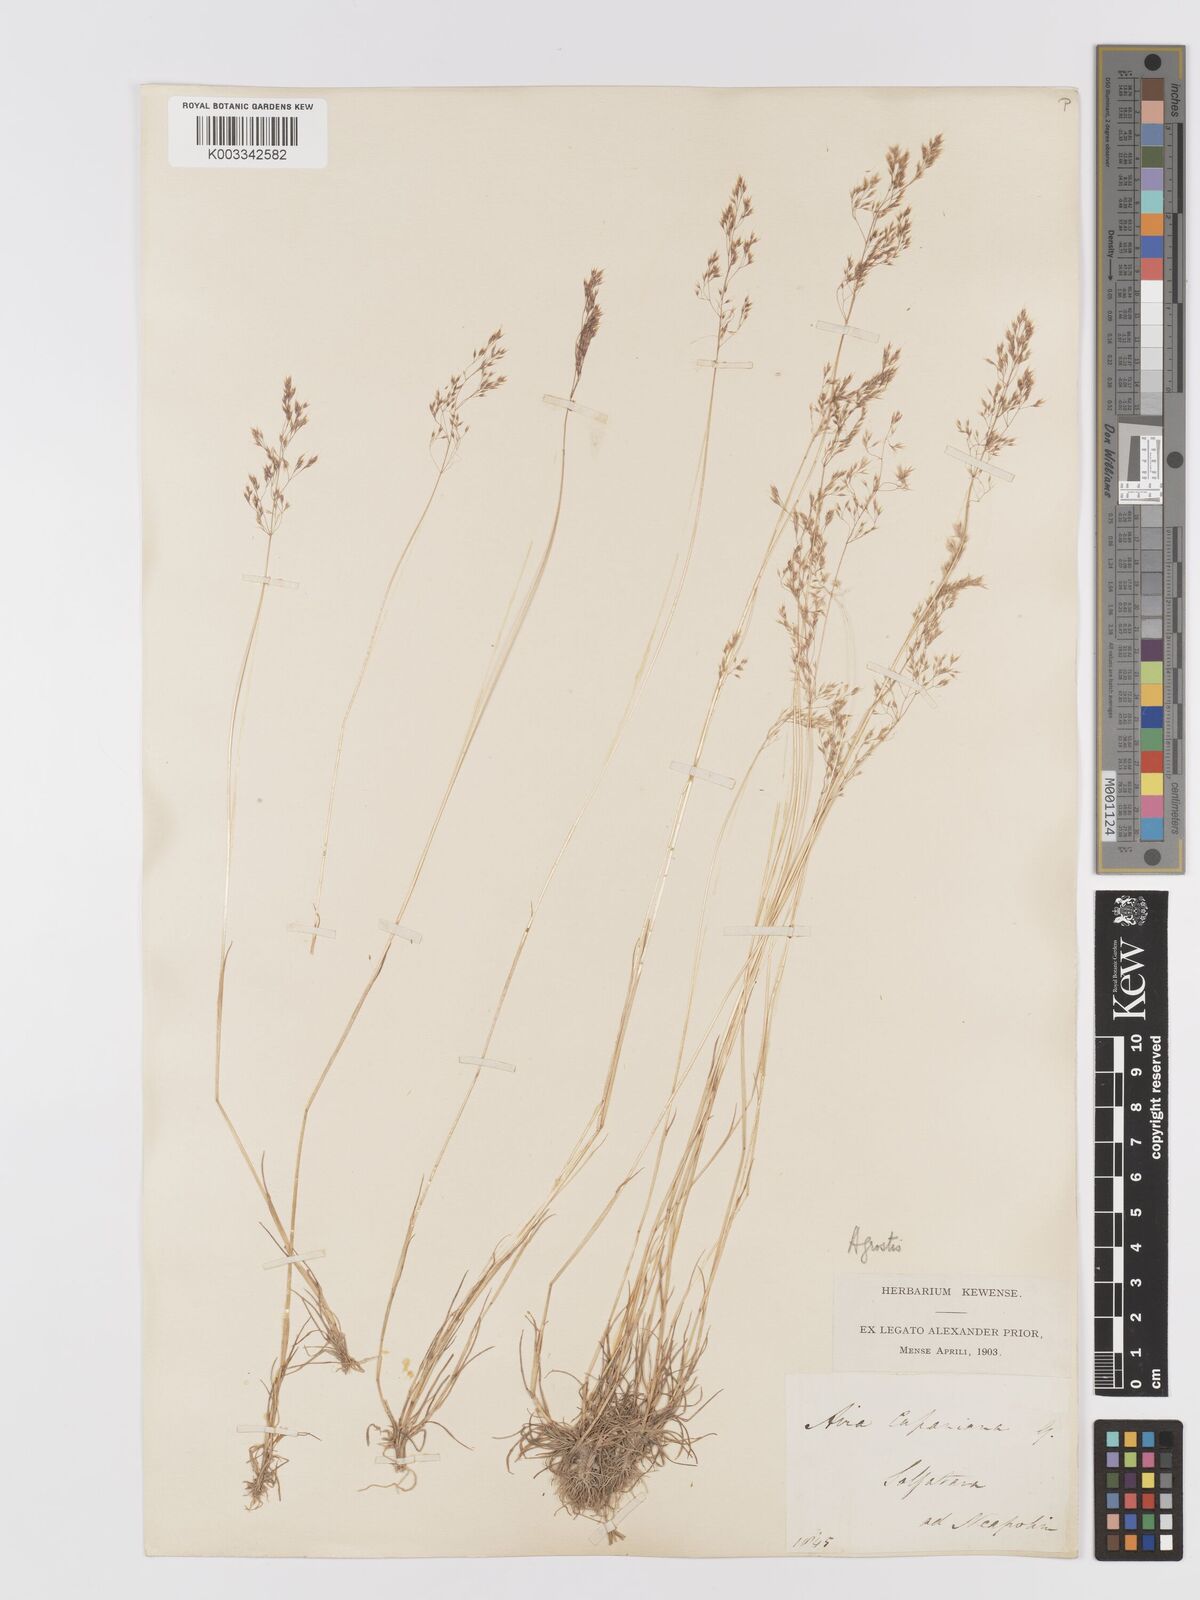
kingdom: Plantae
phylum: Tracheophyta
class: Liliopsida
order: Poales
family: Poaceae
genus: Agrostis
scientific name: Agrostis
